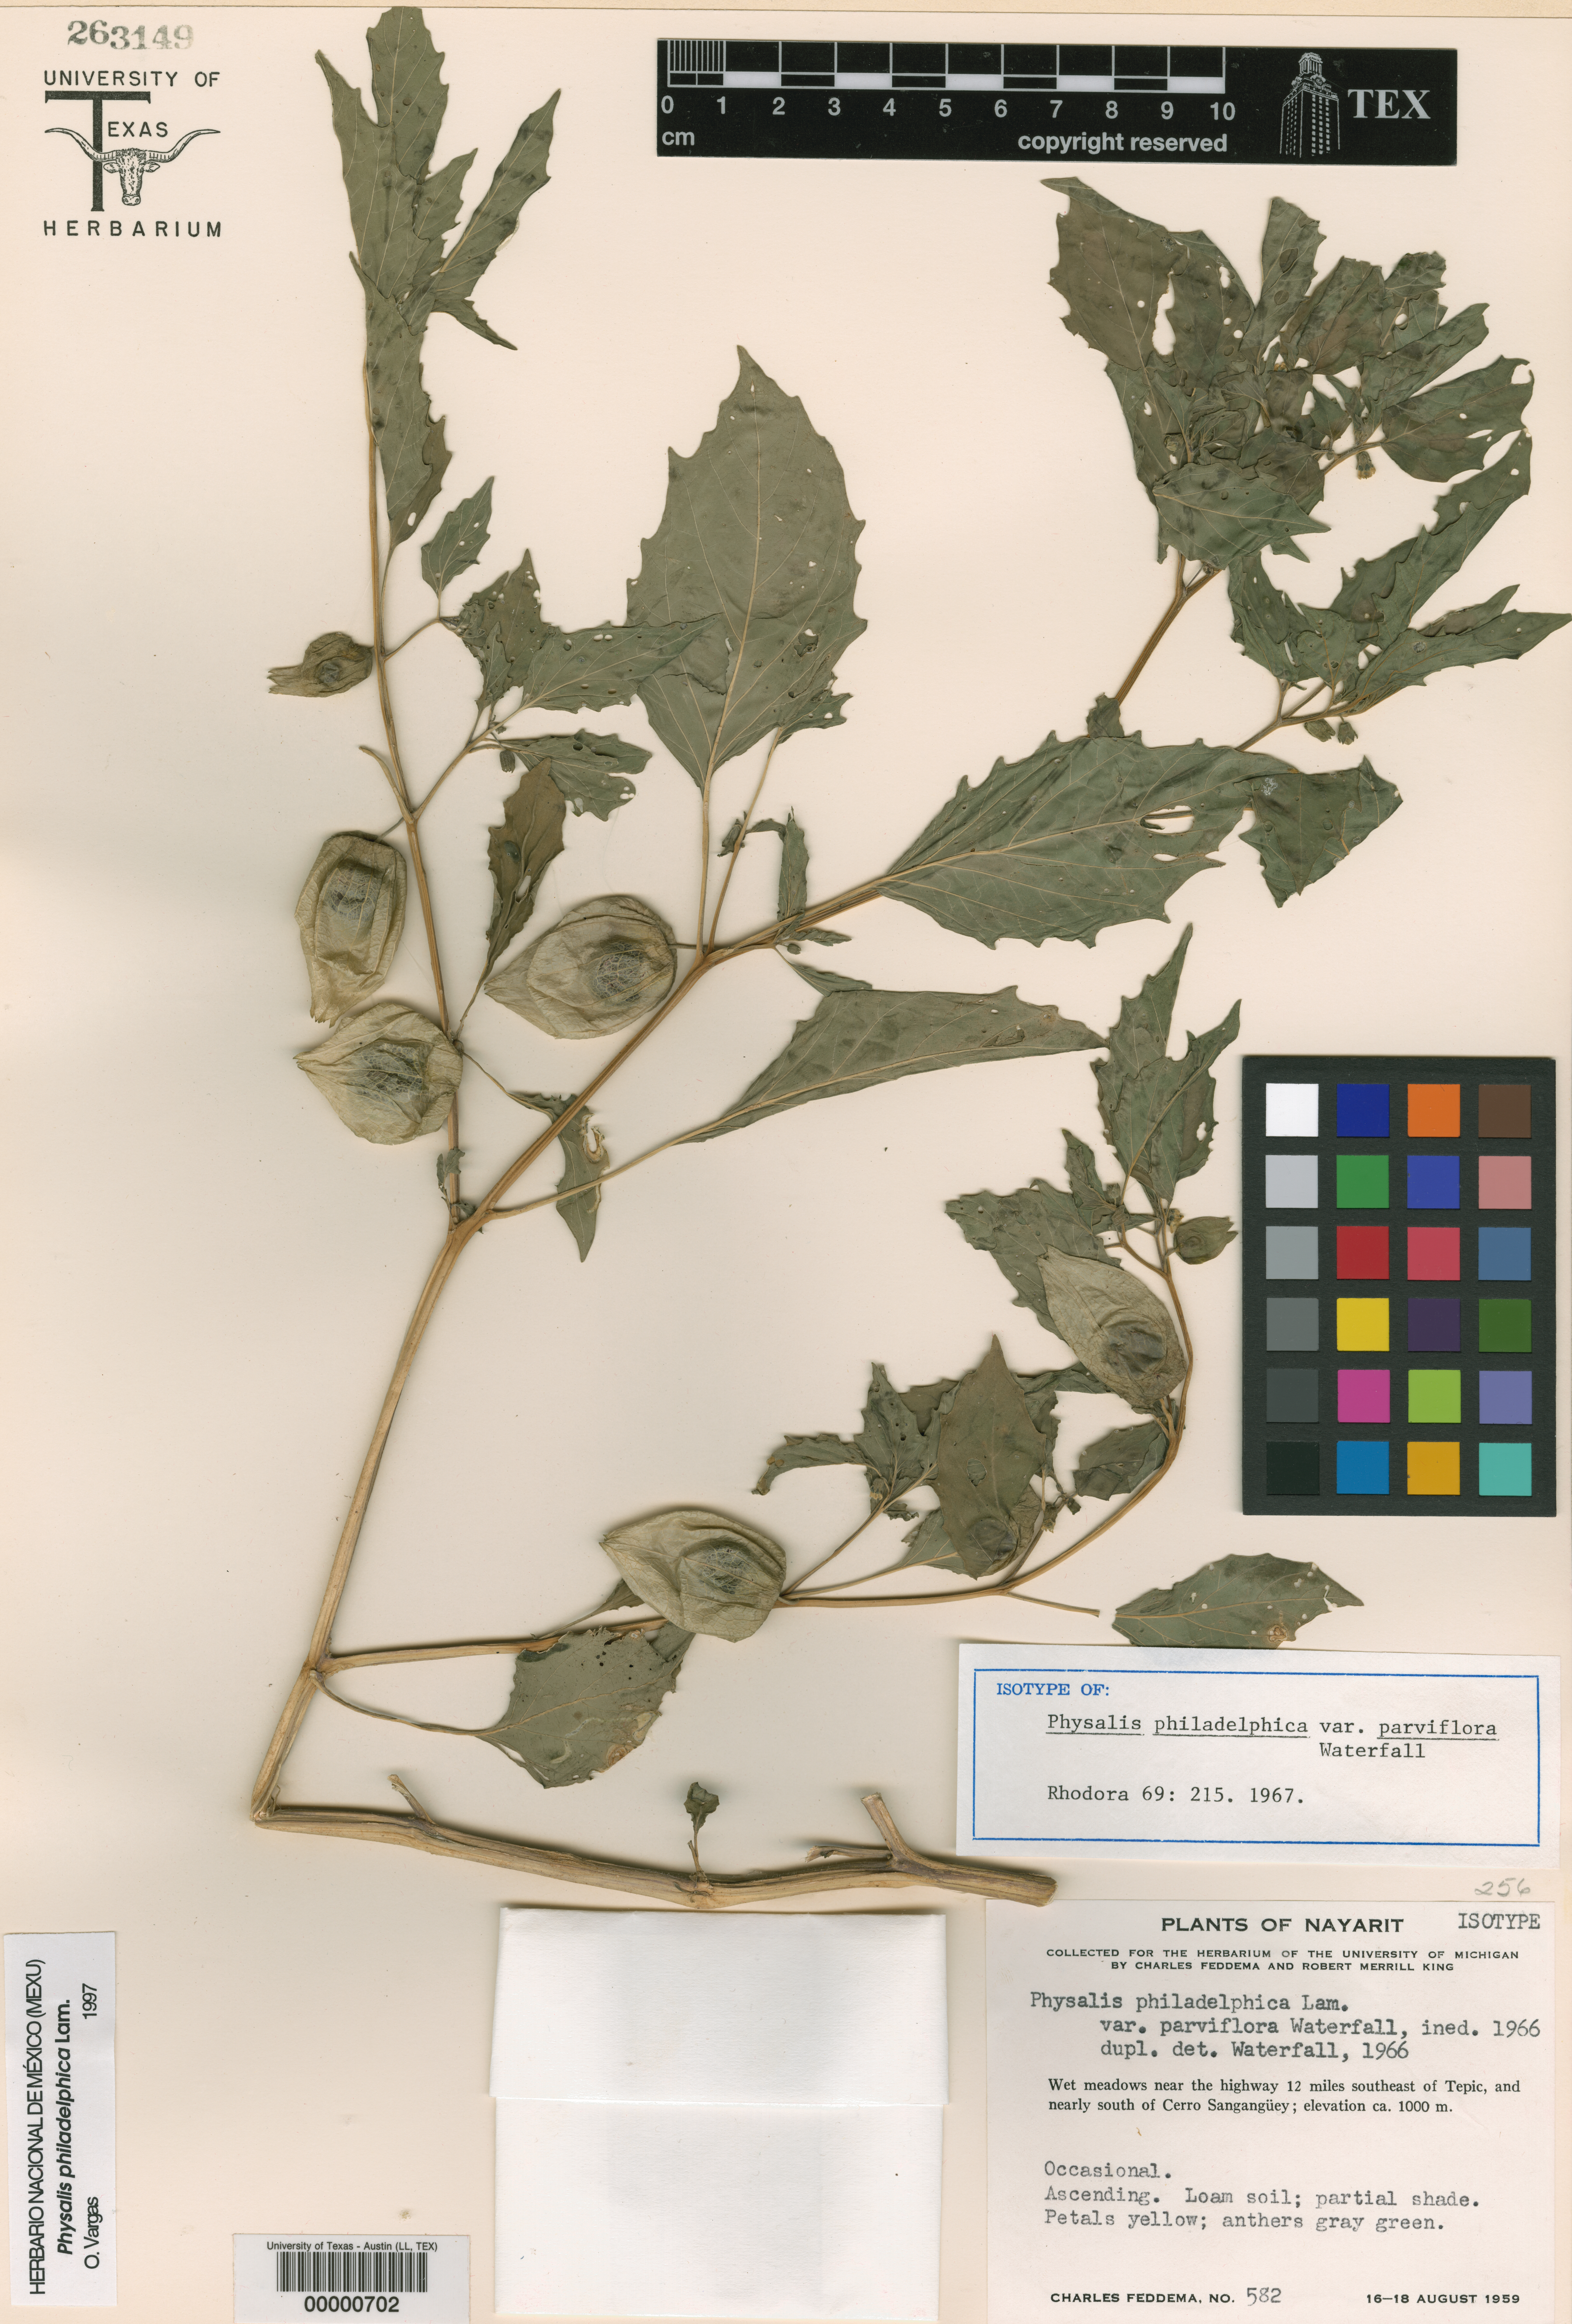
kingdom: Plantae
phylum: Tracheophyta
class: Magnoliopsida
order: Solanales
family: Solanaceae
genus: Physalis
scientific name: Physalis philadelphica
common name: Husk-tomato
